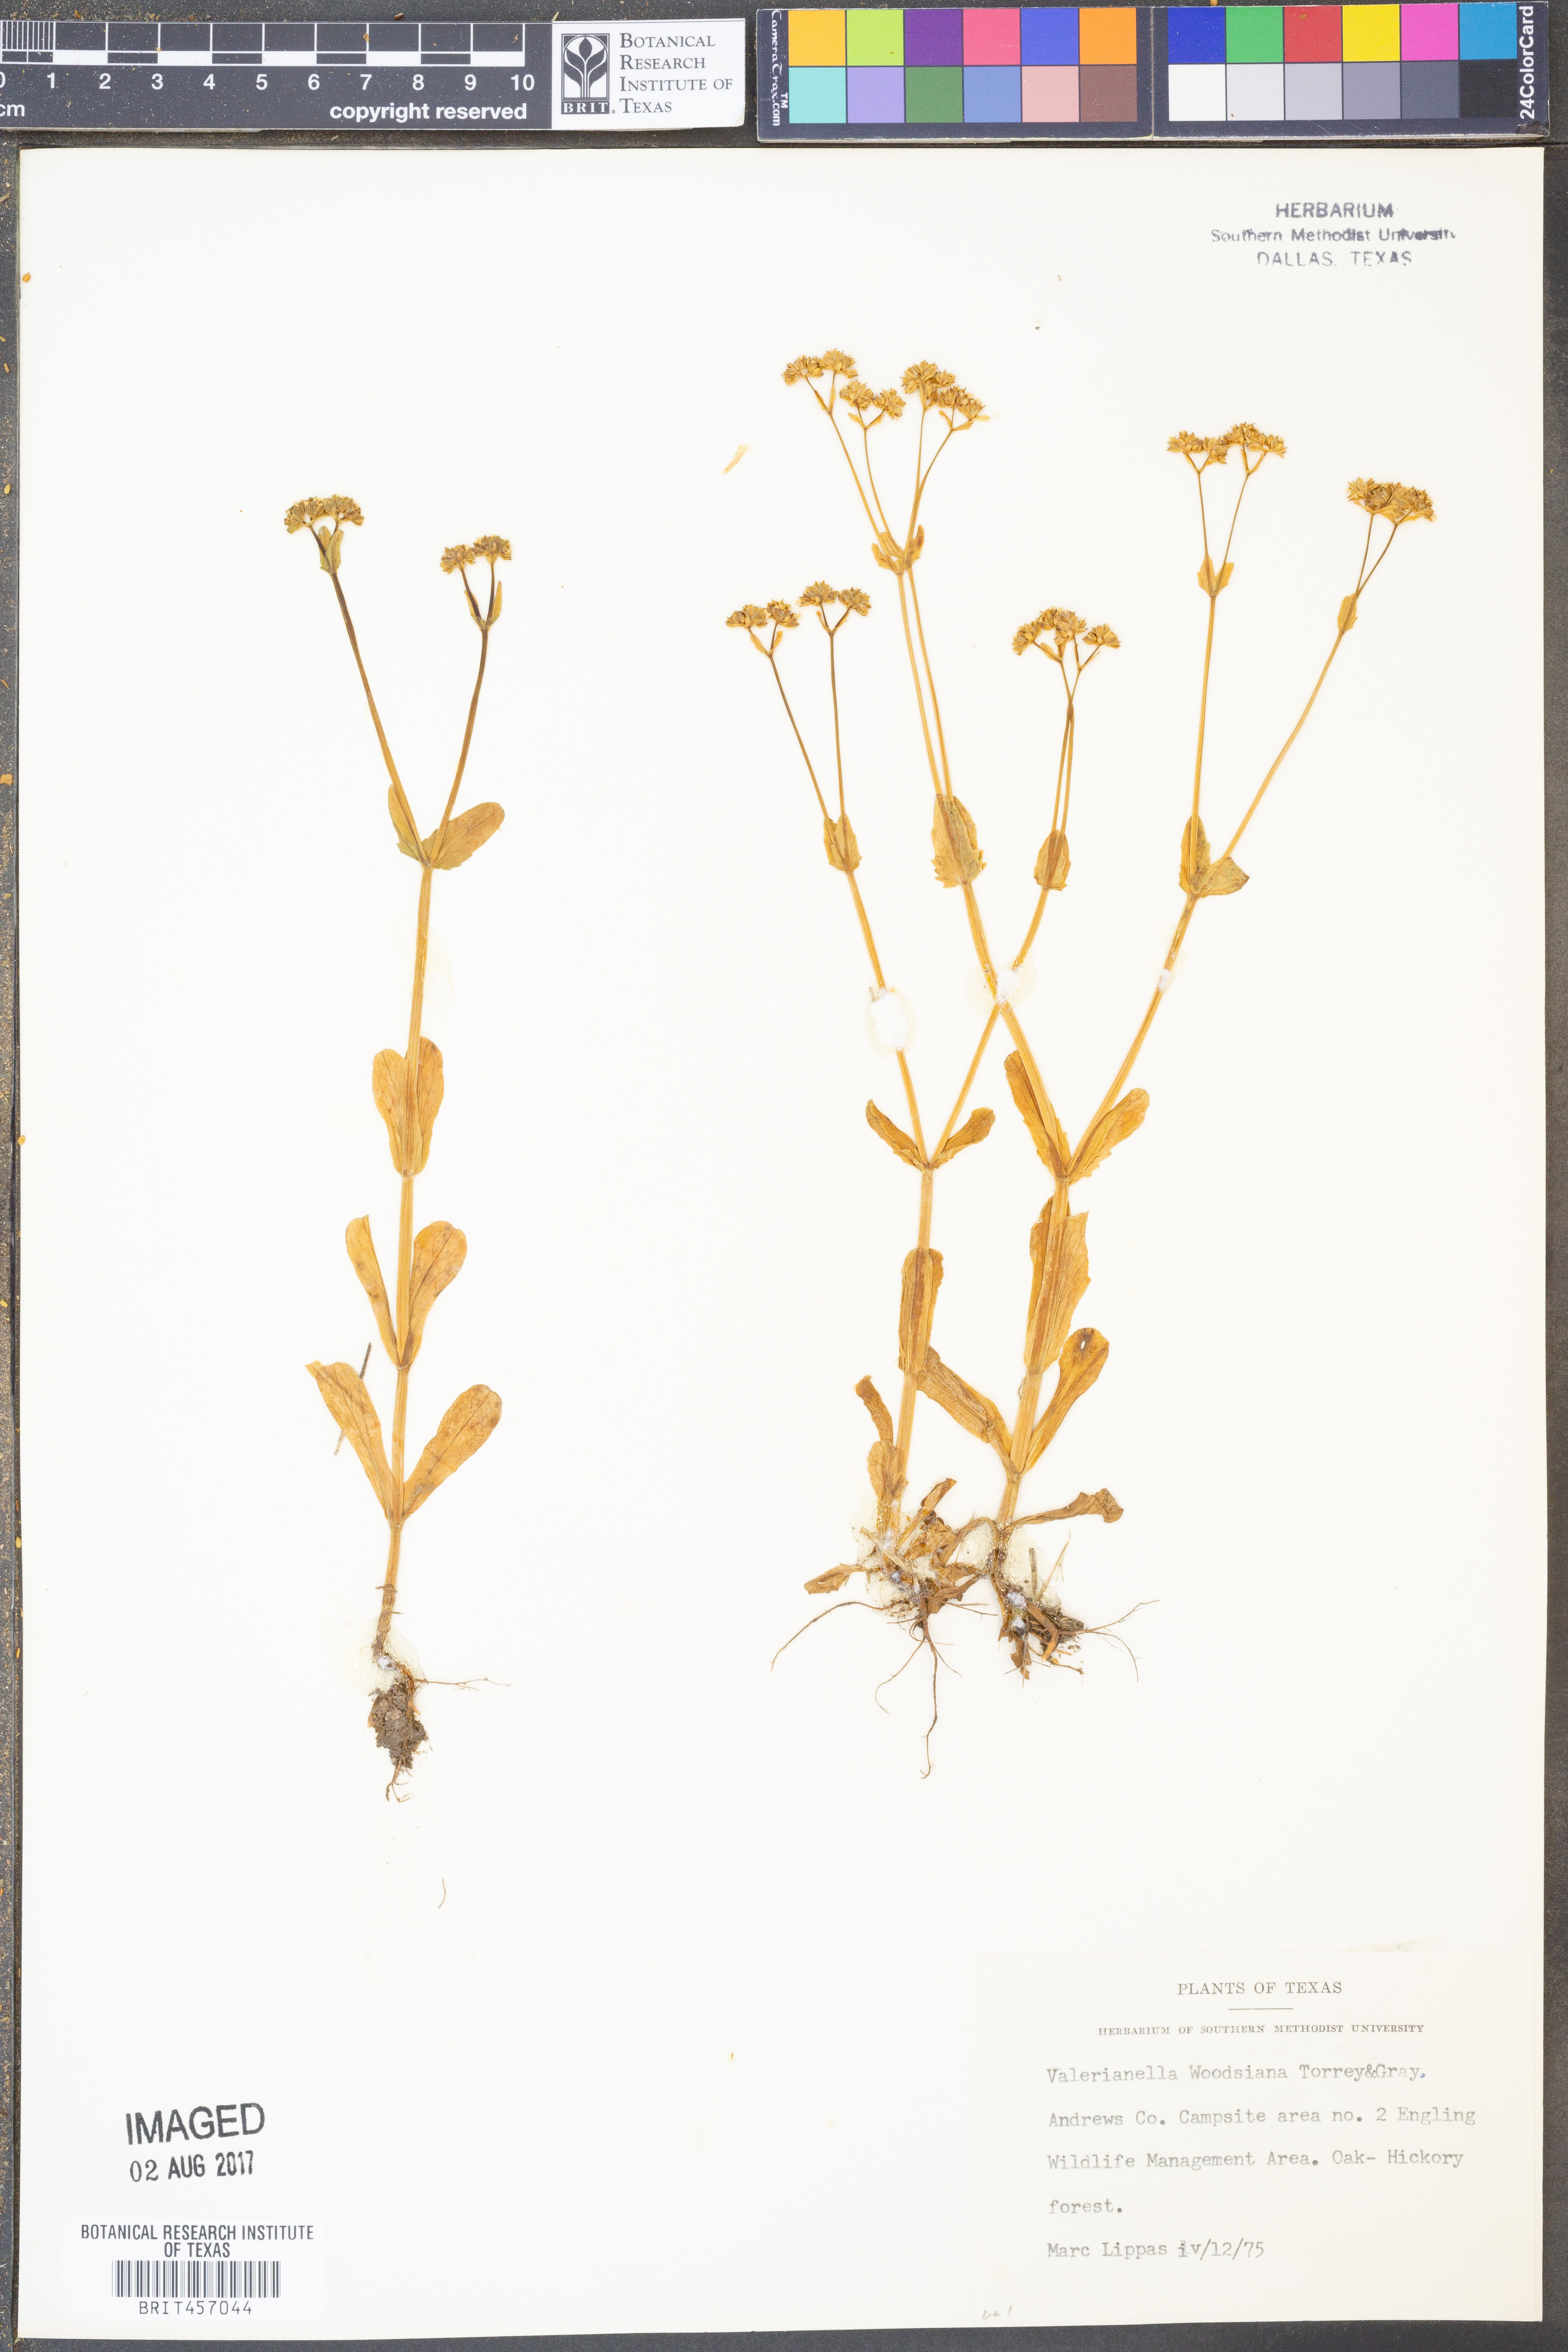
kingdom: Plantae
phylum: Tracheophyta
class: Magnoliopsida
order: Dipsacales
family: Caprifoliaceae
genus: Valerianella
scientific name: Valerianella radiata
